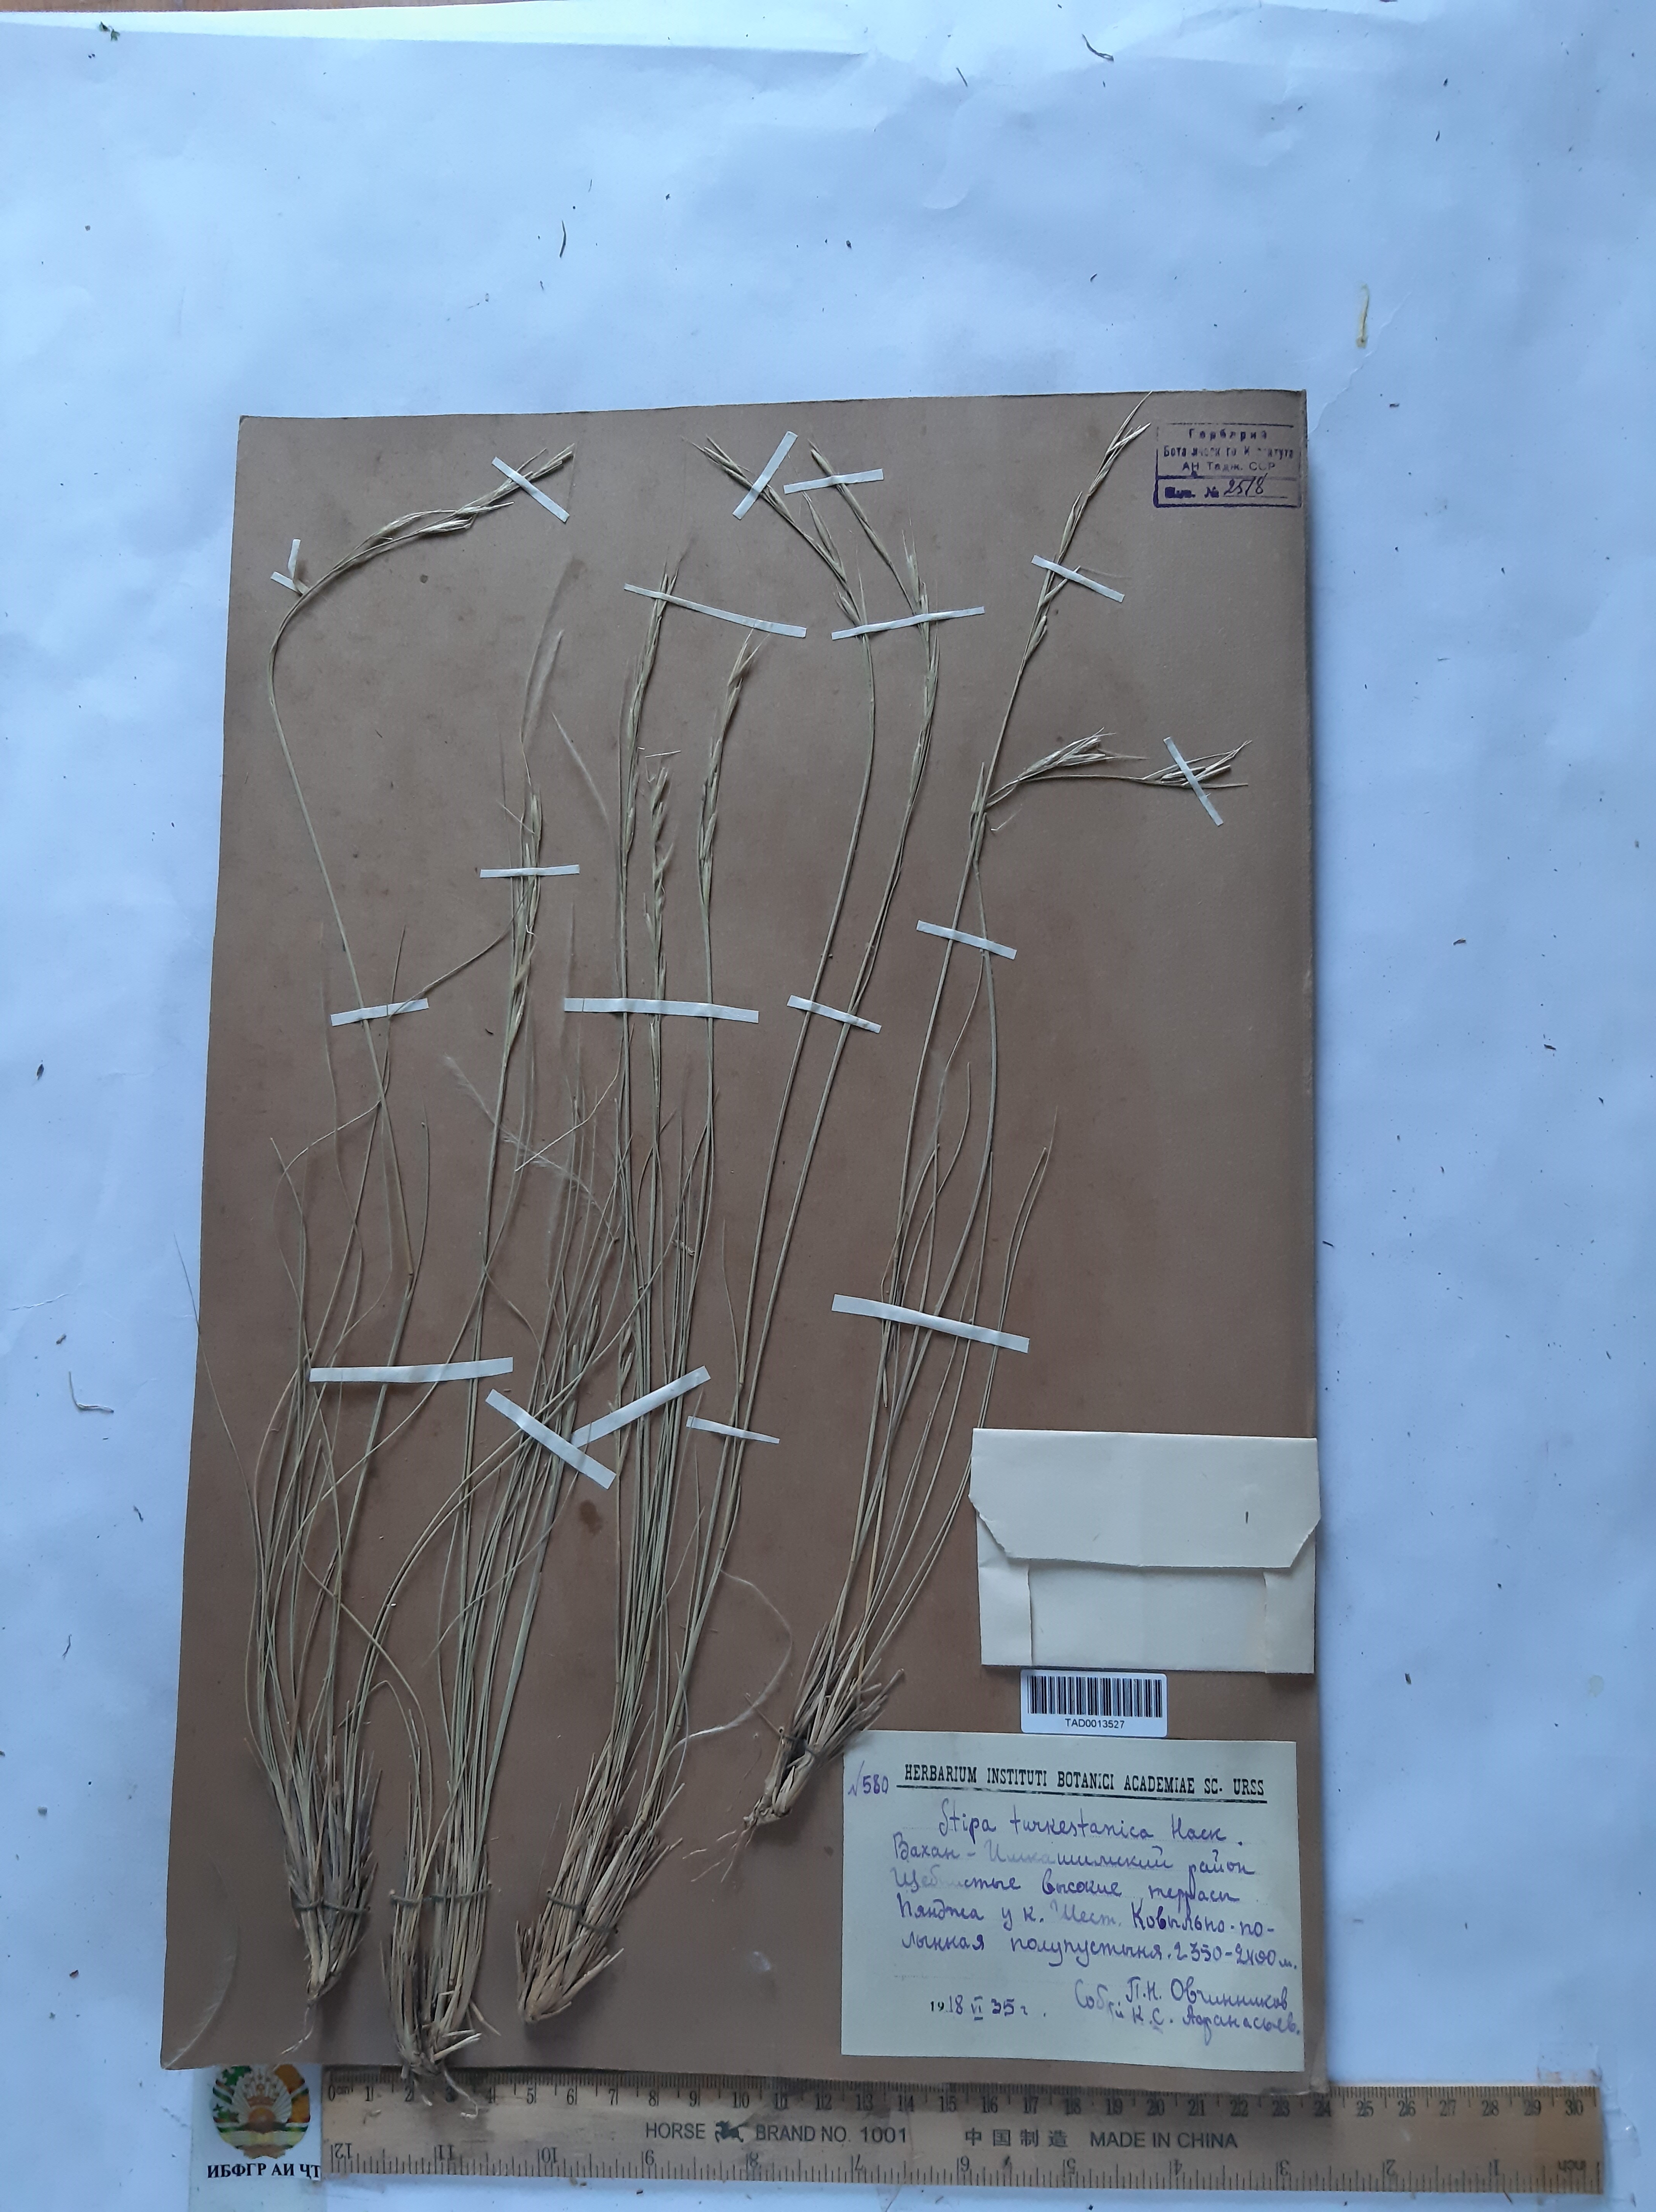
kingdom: Plantae
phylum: Tracheophyta
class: Liliopsida
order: Poales
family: Poaceae
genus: Stipa
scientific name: Stipa turkestanica
